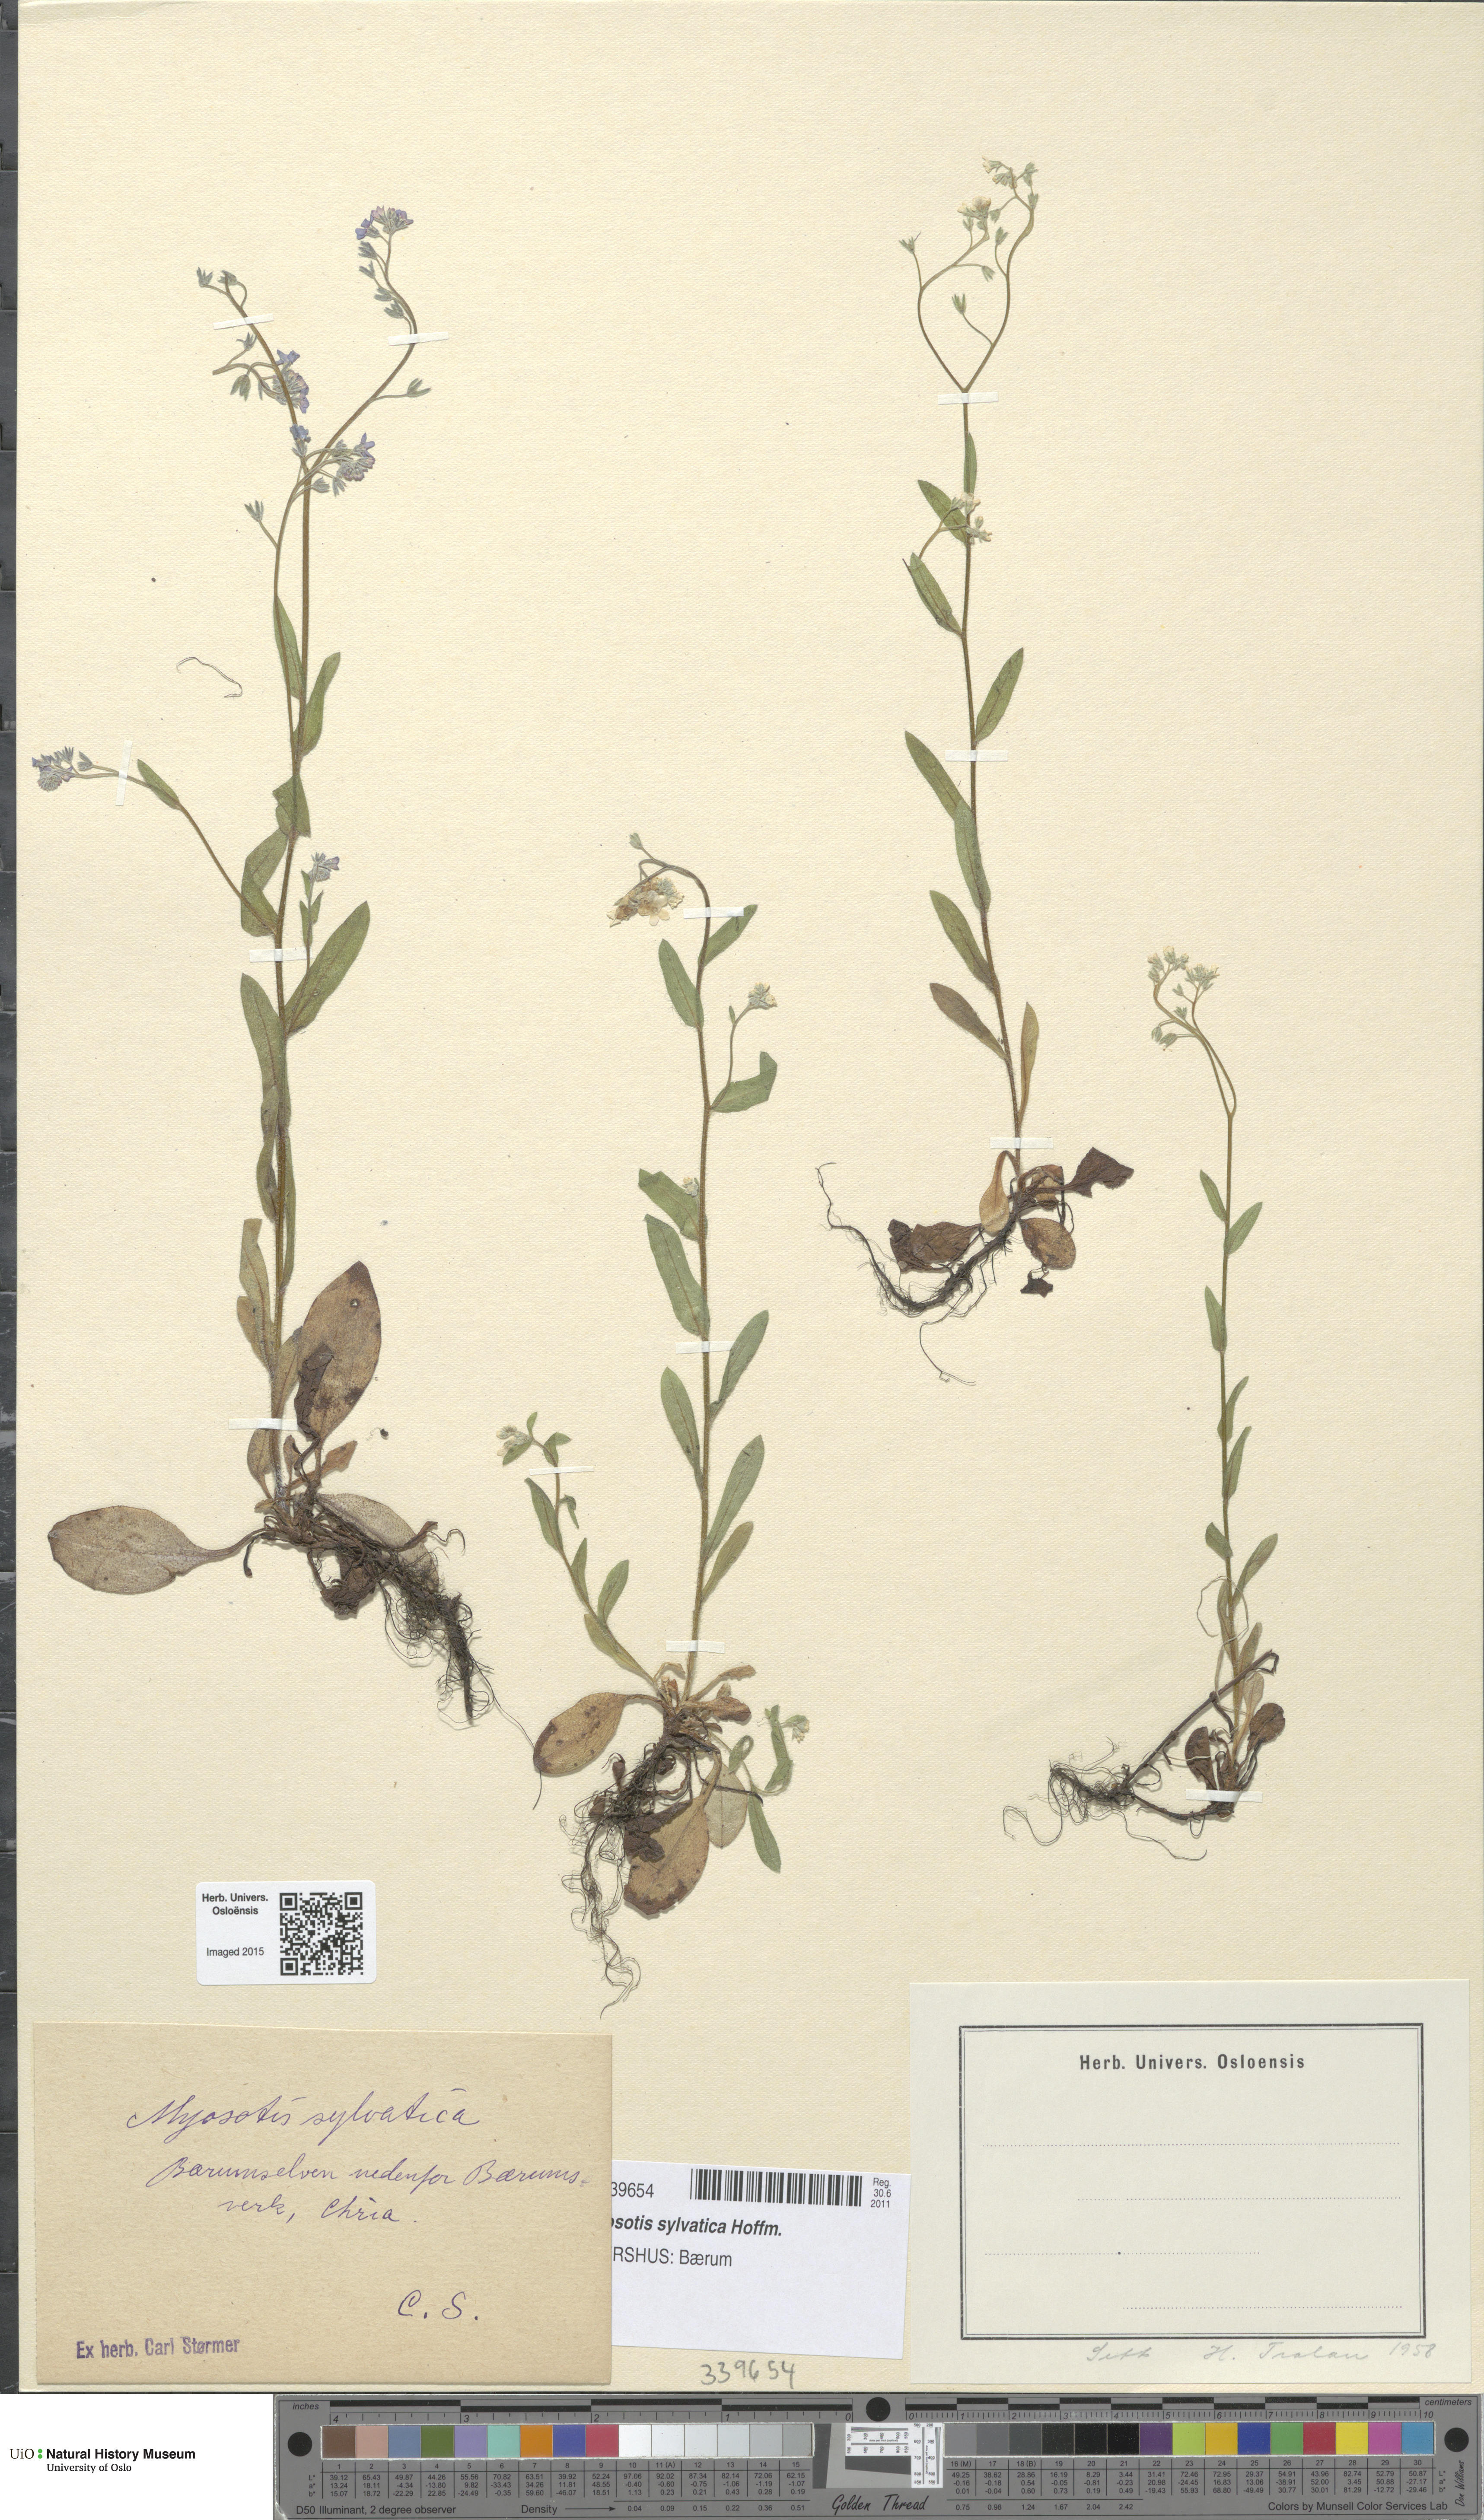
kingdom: Plantae
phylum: Tracheophyta
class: Magnoliopsida
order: Boraginales
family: Boraginaceae
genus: Myosotis
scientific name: Myosotis sylvatica
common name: Wood forget-me-not
